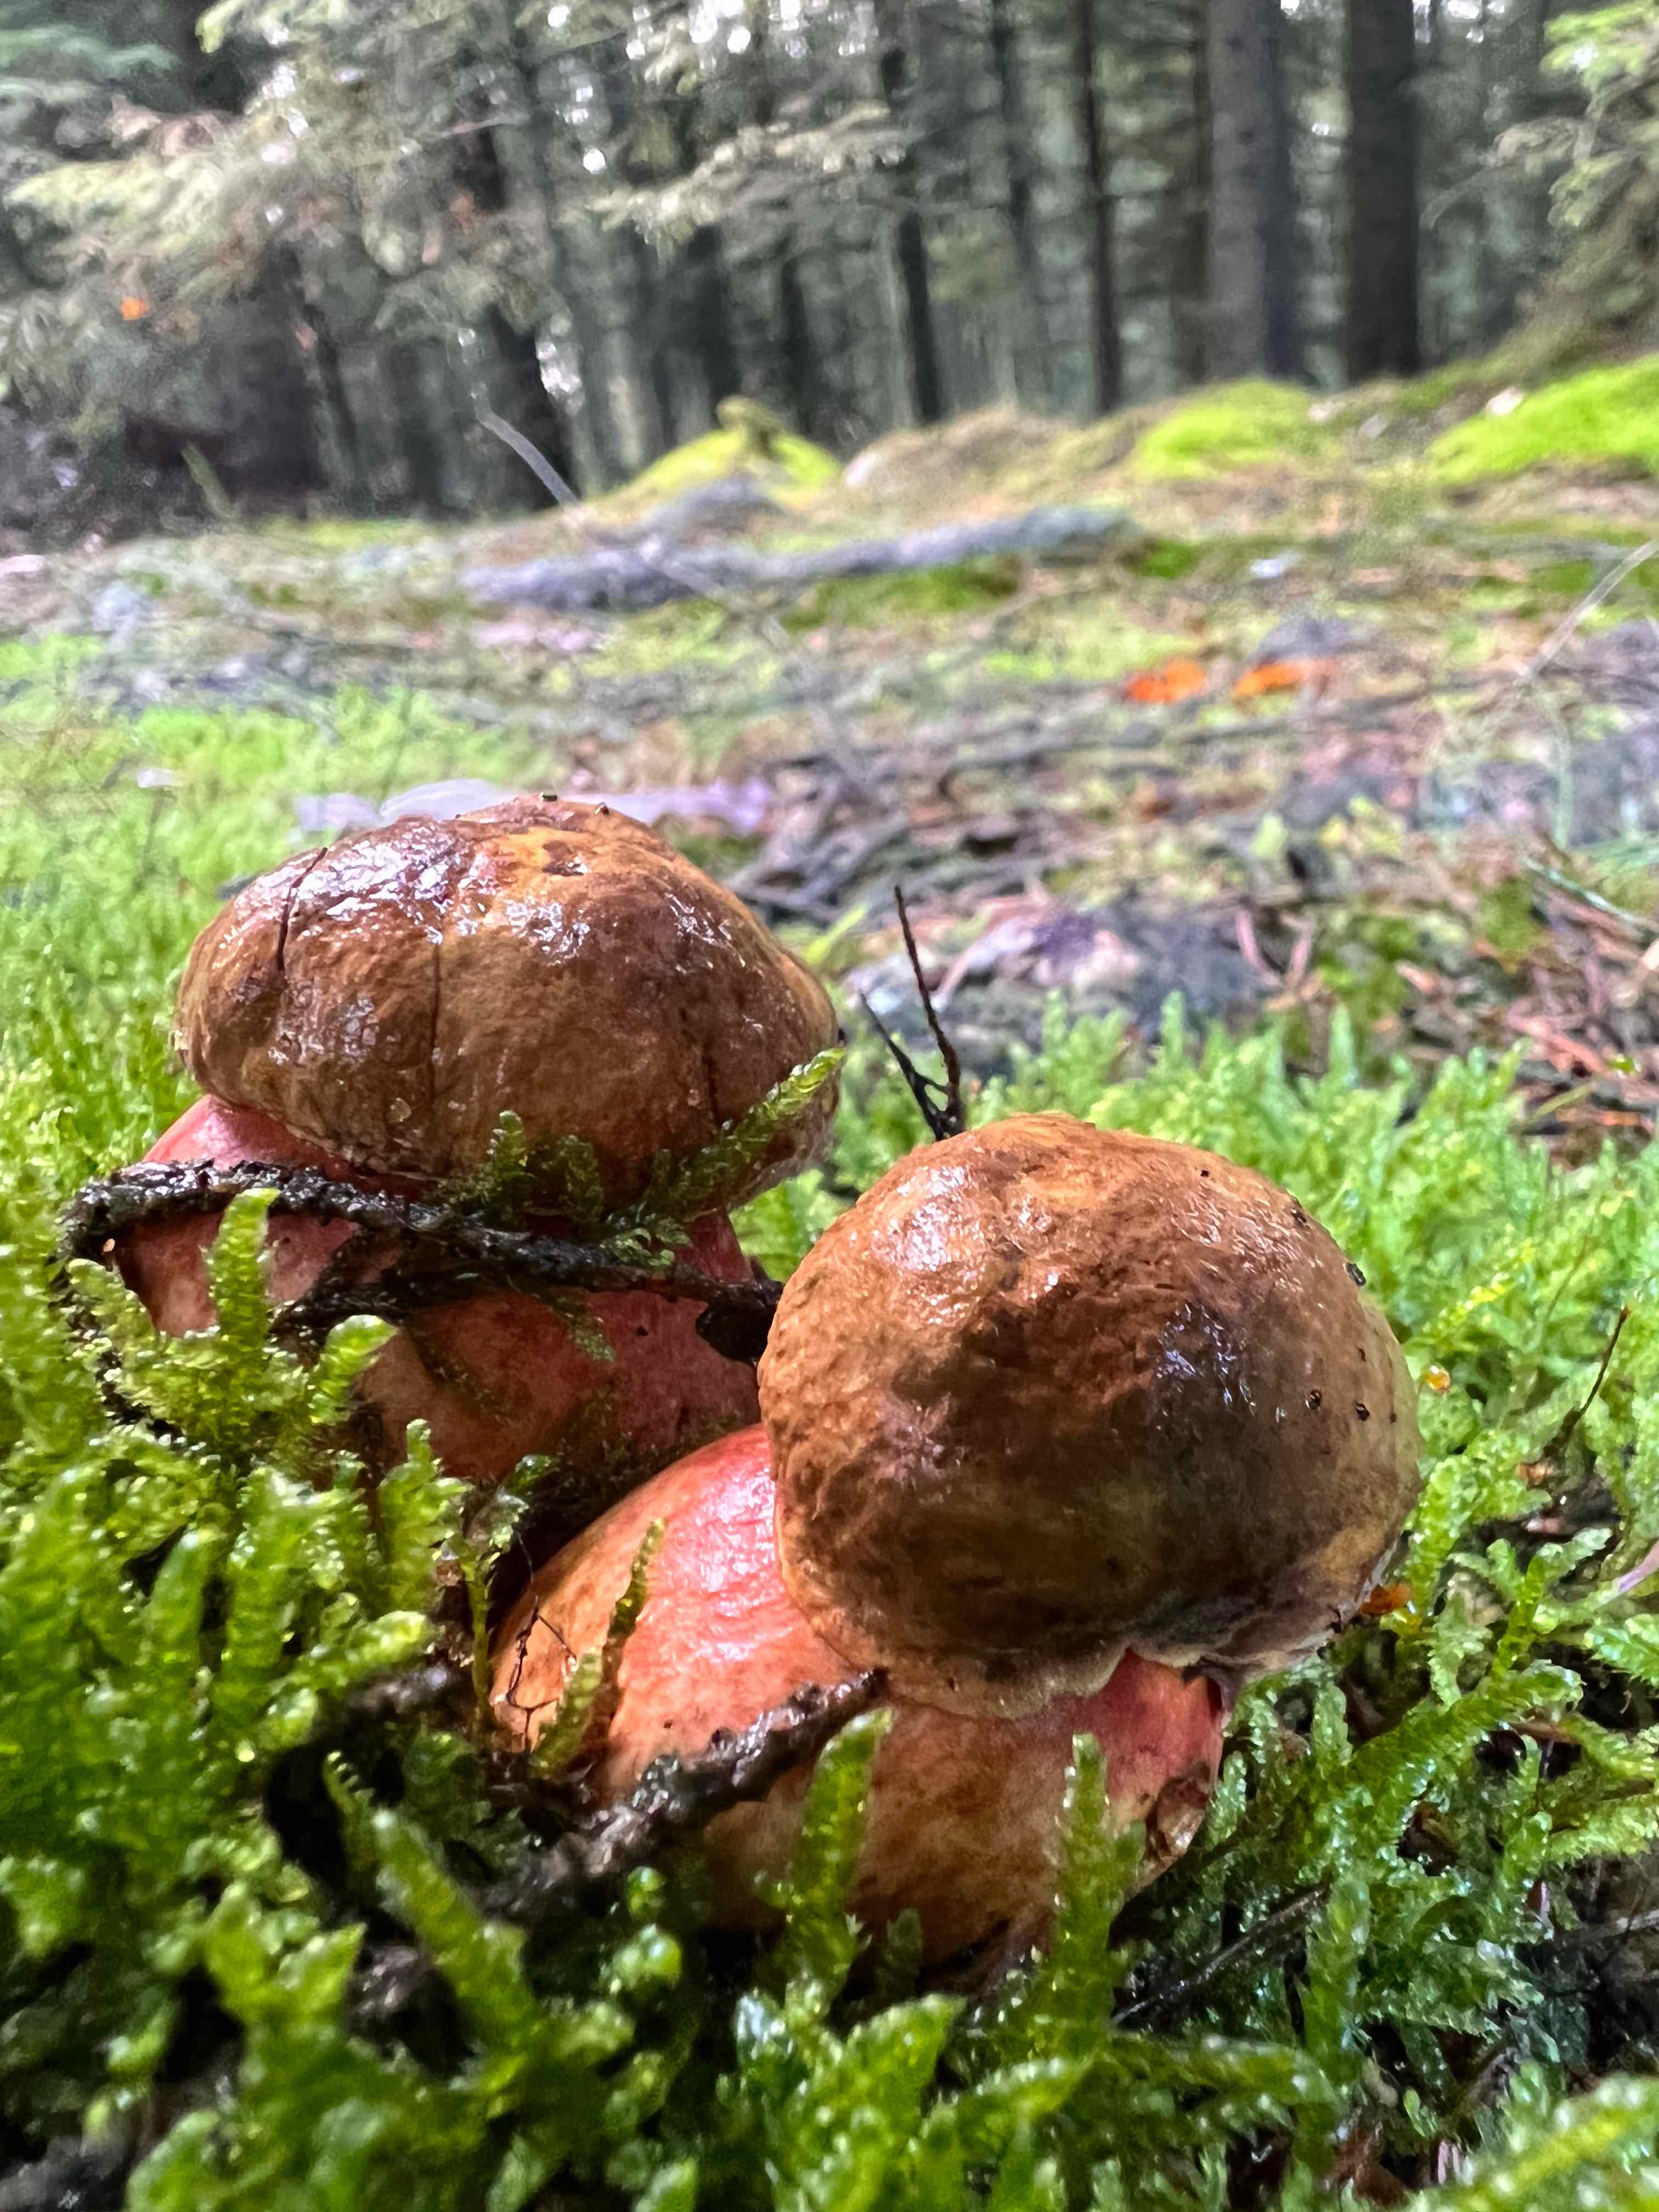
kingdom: Fungi
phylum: Basidiomycota
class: Agaricomycetes
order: Boletales
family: Boletaceae
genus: Neoboletus
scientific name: Neoboletus erythropus
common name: punktstokket indigorørhat
